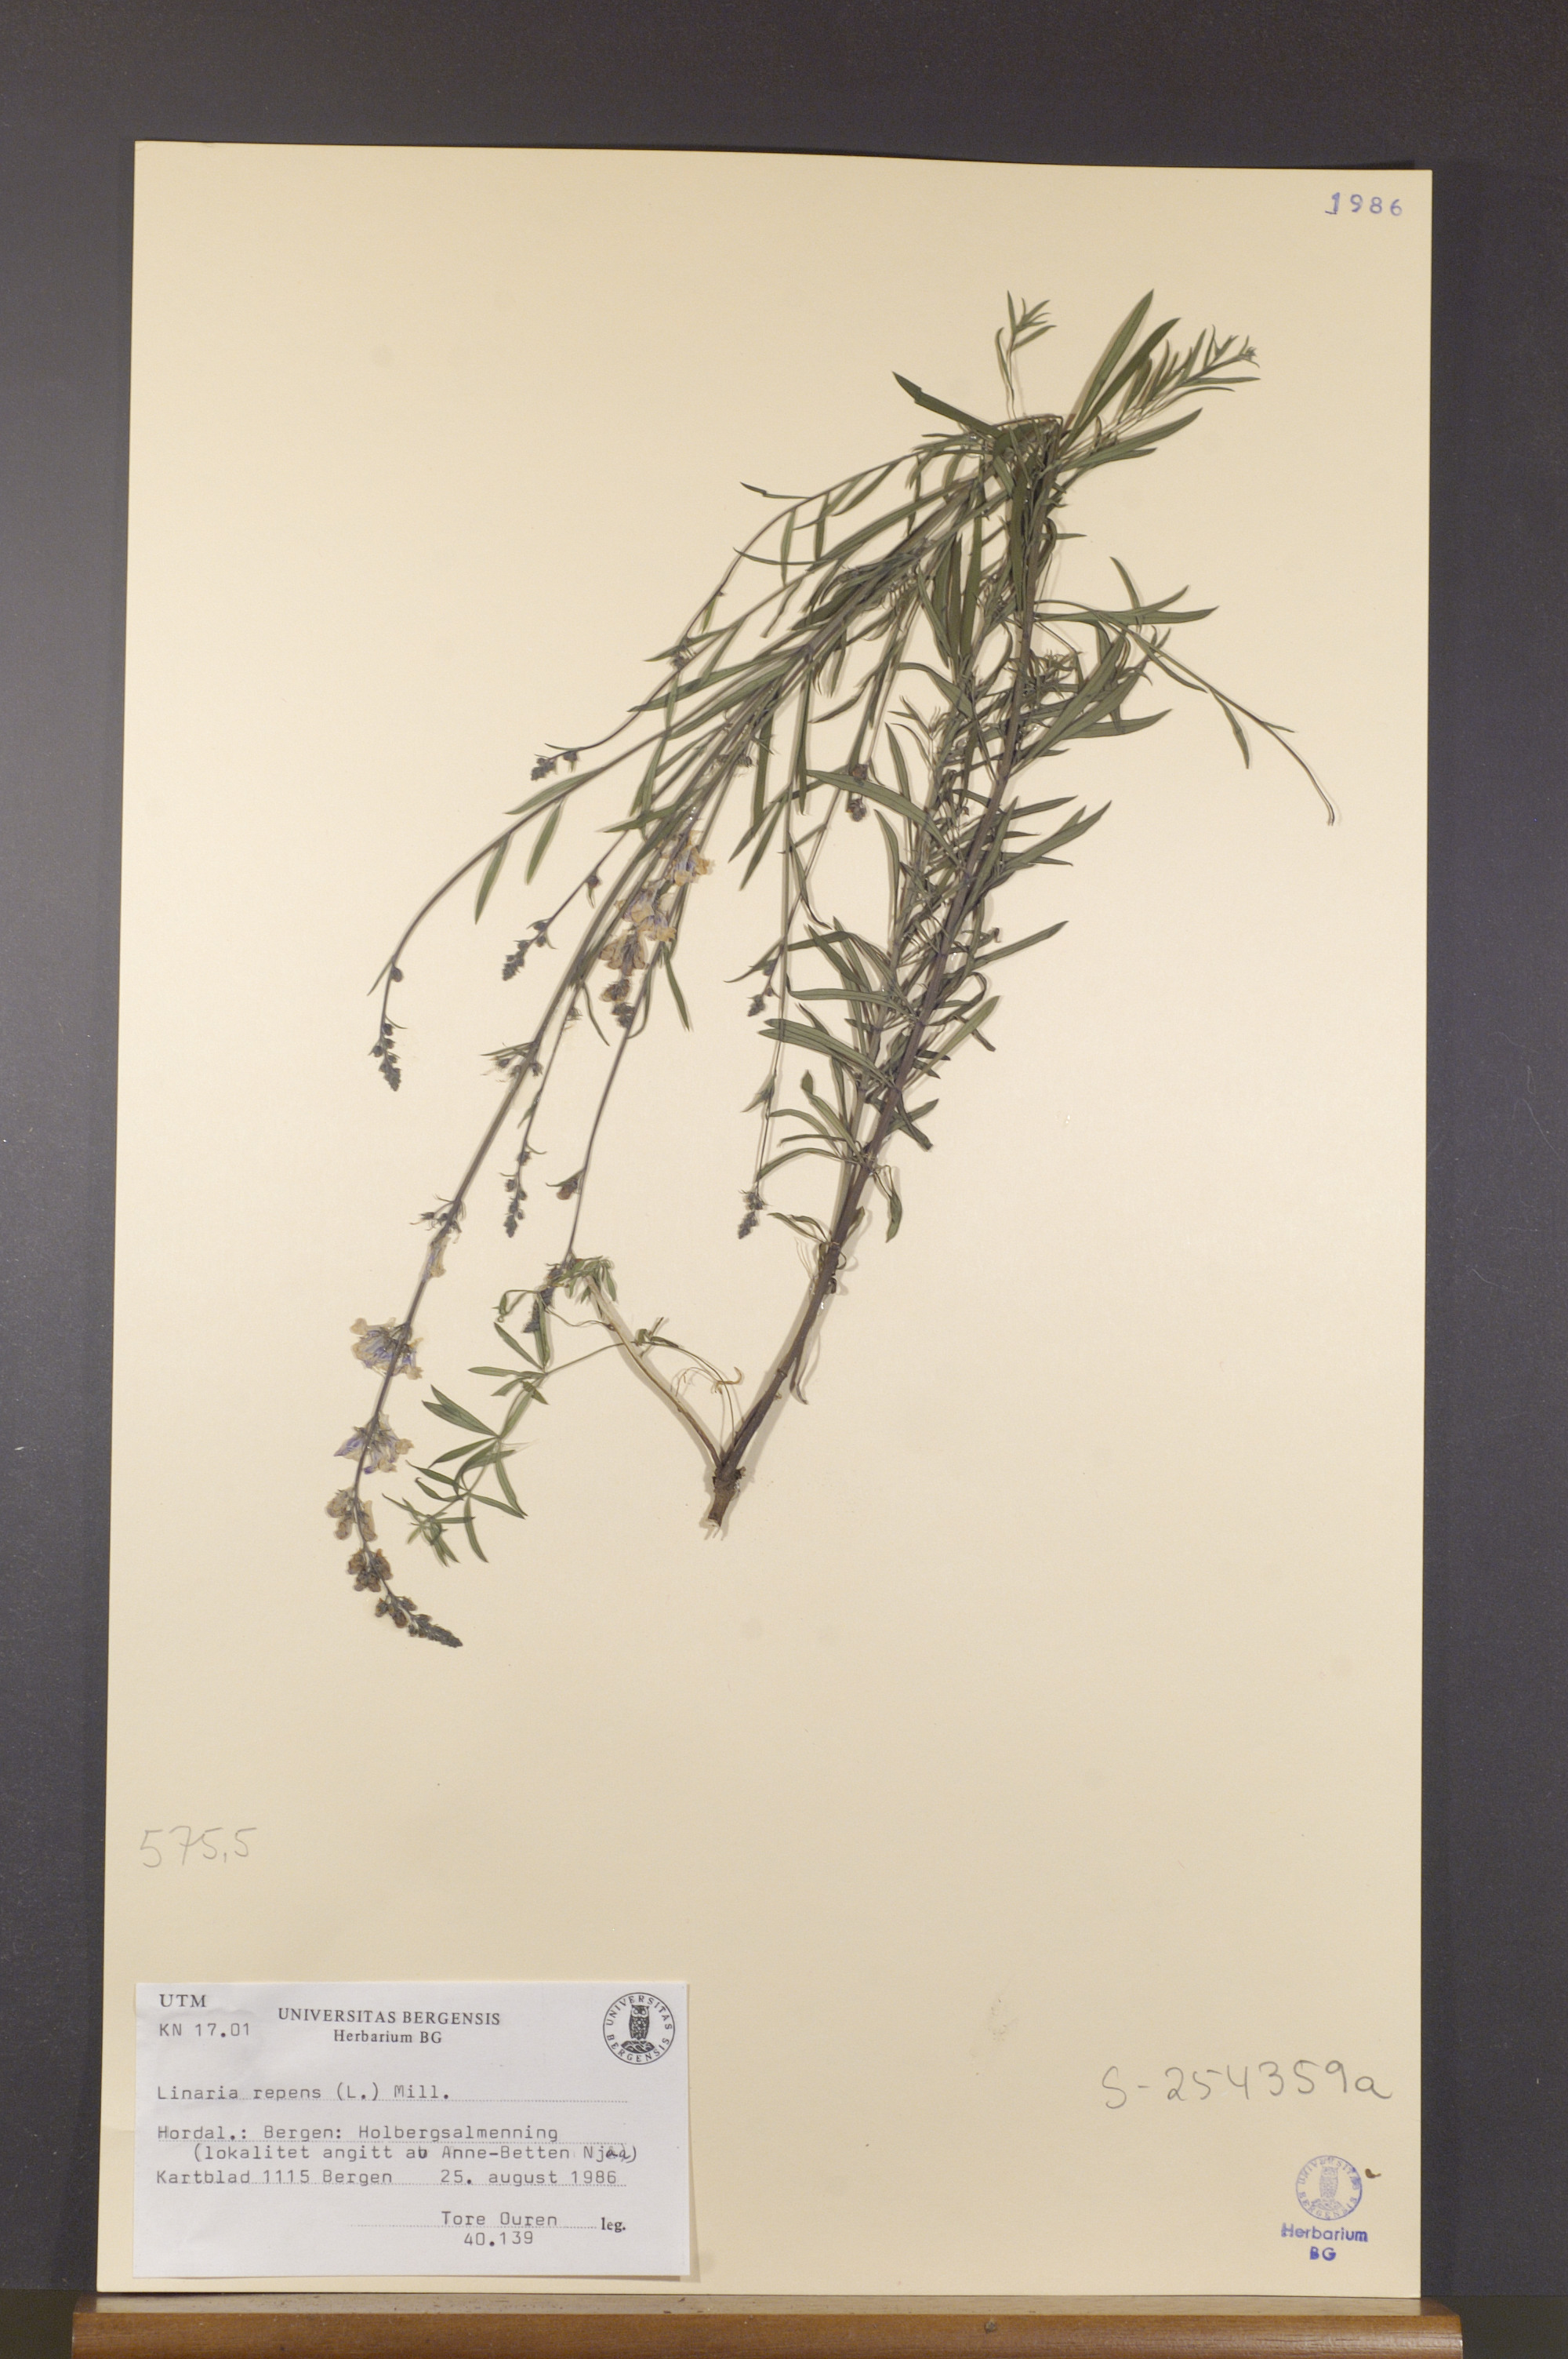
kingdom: Plantae
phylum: Tracheophyta
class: Magnoliopsida
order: Lamiales
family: Plantaginaceae
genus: Linaria
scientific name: Linaria repens
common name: Pale toadflax
